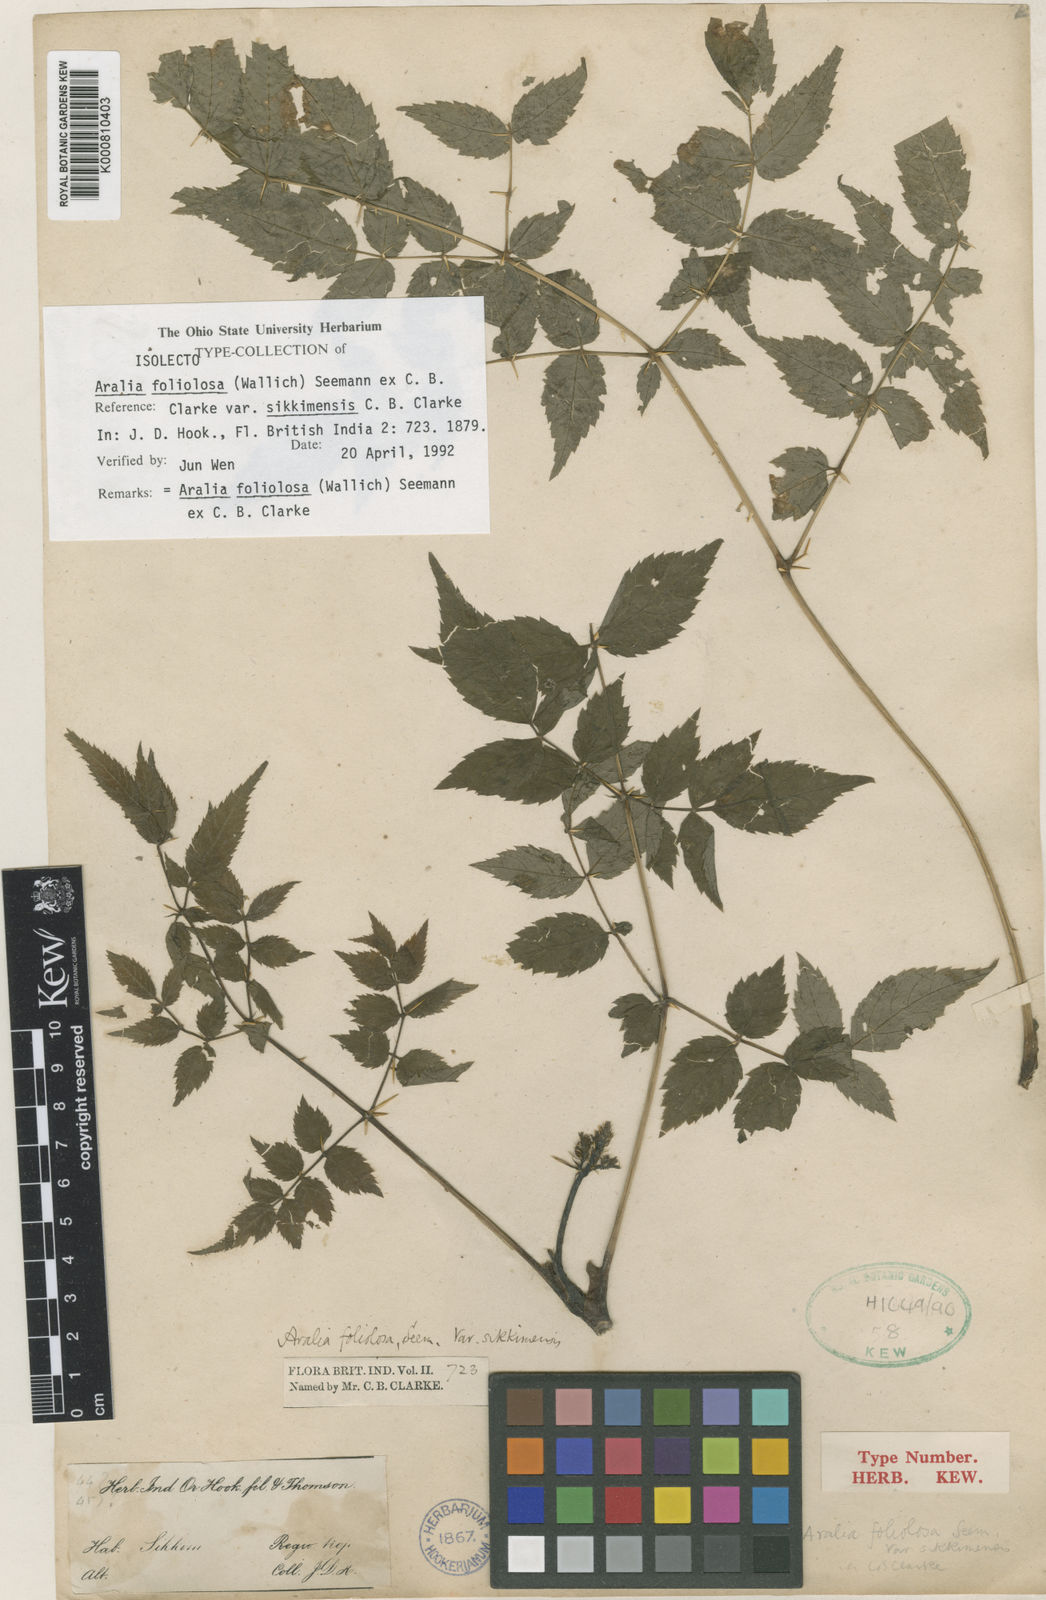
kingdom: Plantae
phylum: Tracheophyta
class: Magnoliopsida
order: Apiales
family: Araliaceae
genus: Aralia
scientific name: Aralia foliolosa
